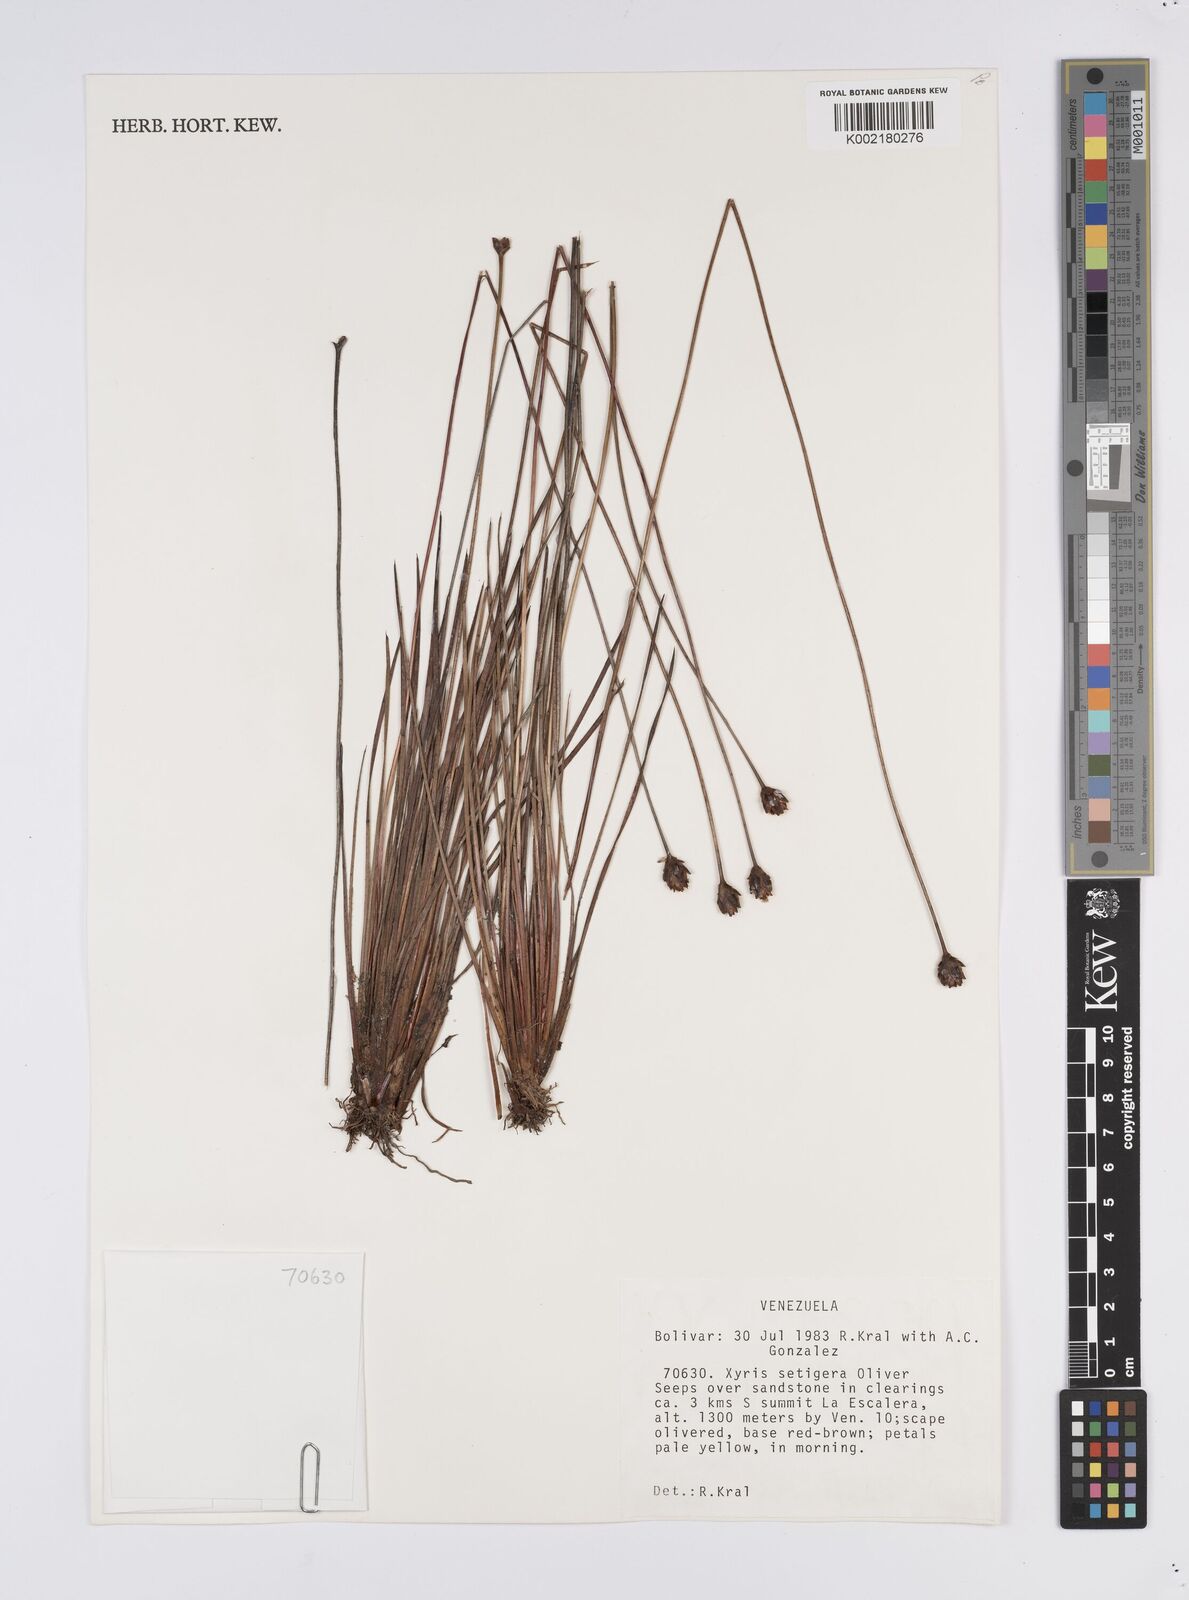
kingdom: Plantae
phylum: Tracheophyta
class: Liliopsida
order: Poales
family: Xyridaceae
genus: Xyris
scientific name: Xyris setigera
